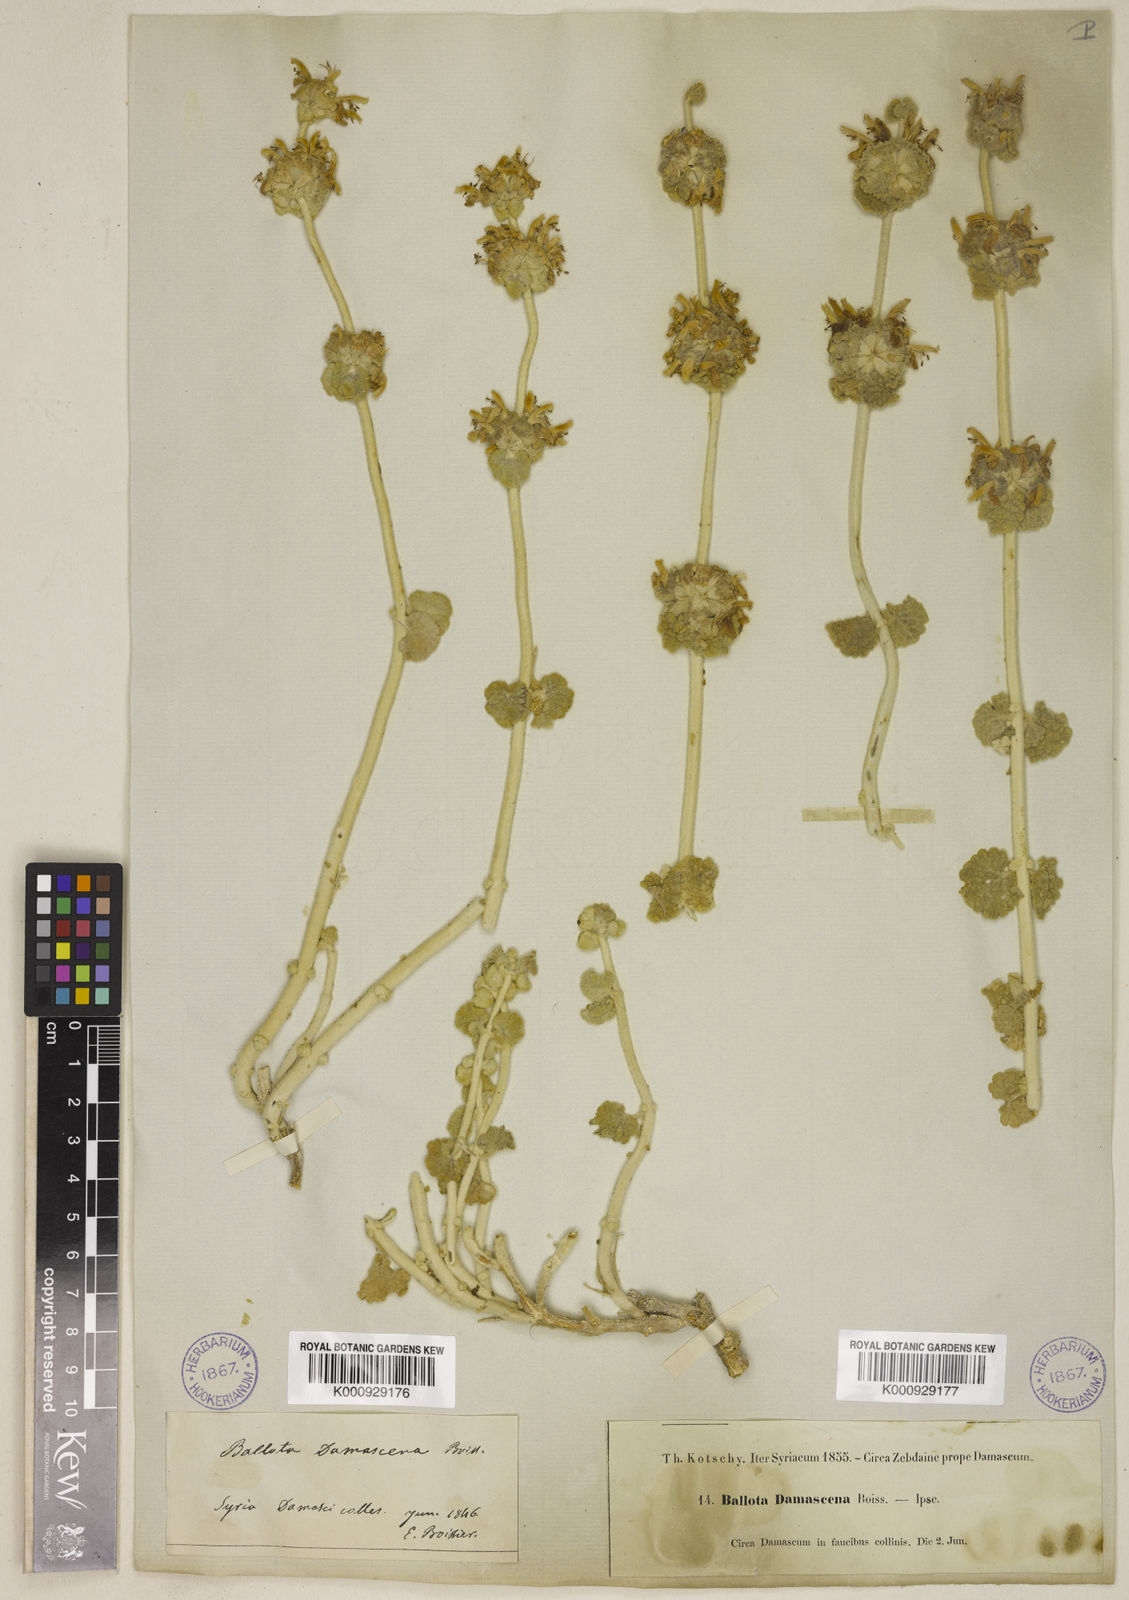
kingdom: Plantae
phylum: Tracheophyta
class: Magnoliopsida
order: Lamiales
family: Lamiaceae
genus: Pseudodictamnus
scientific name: Pseudodictamnus damascenus
